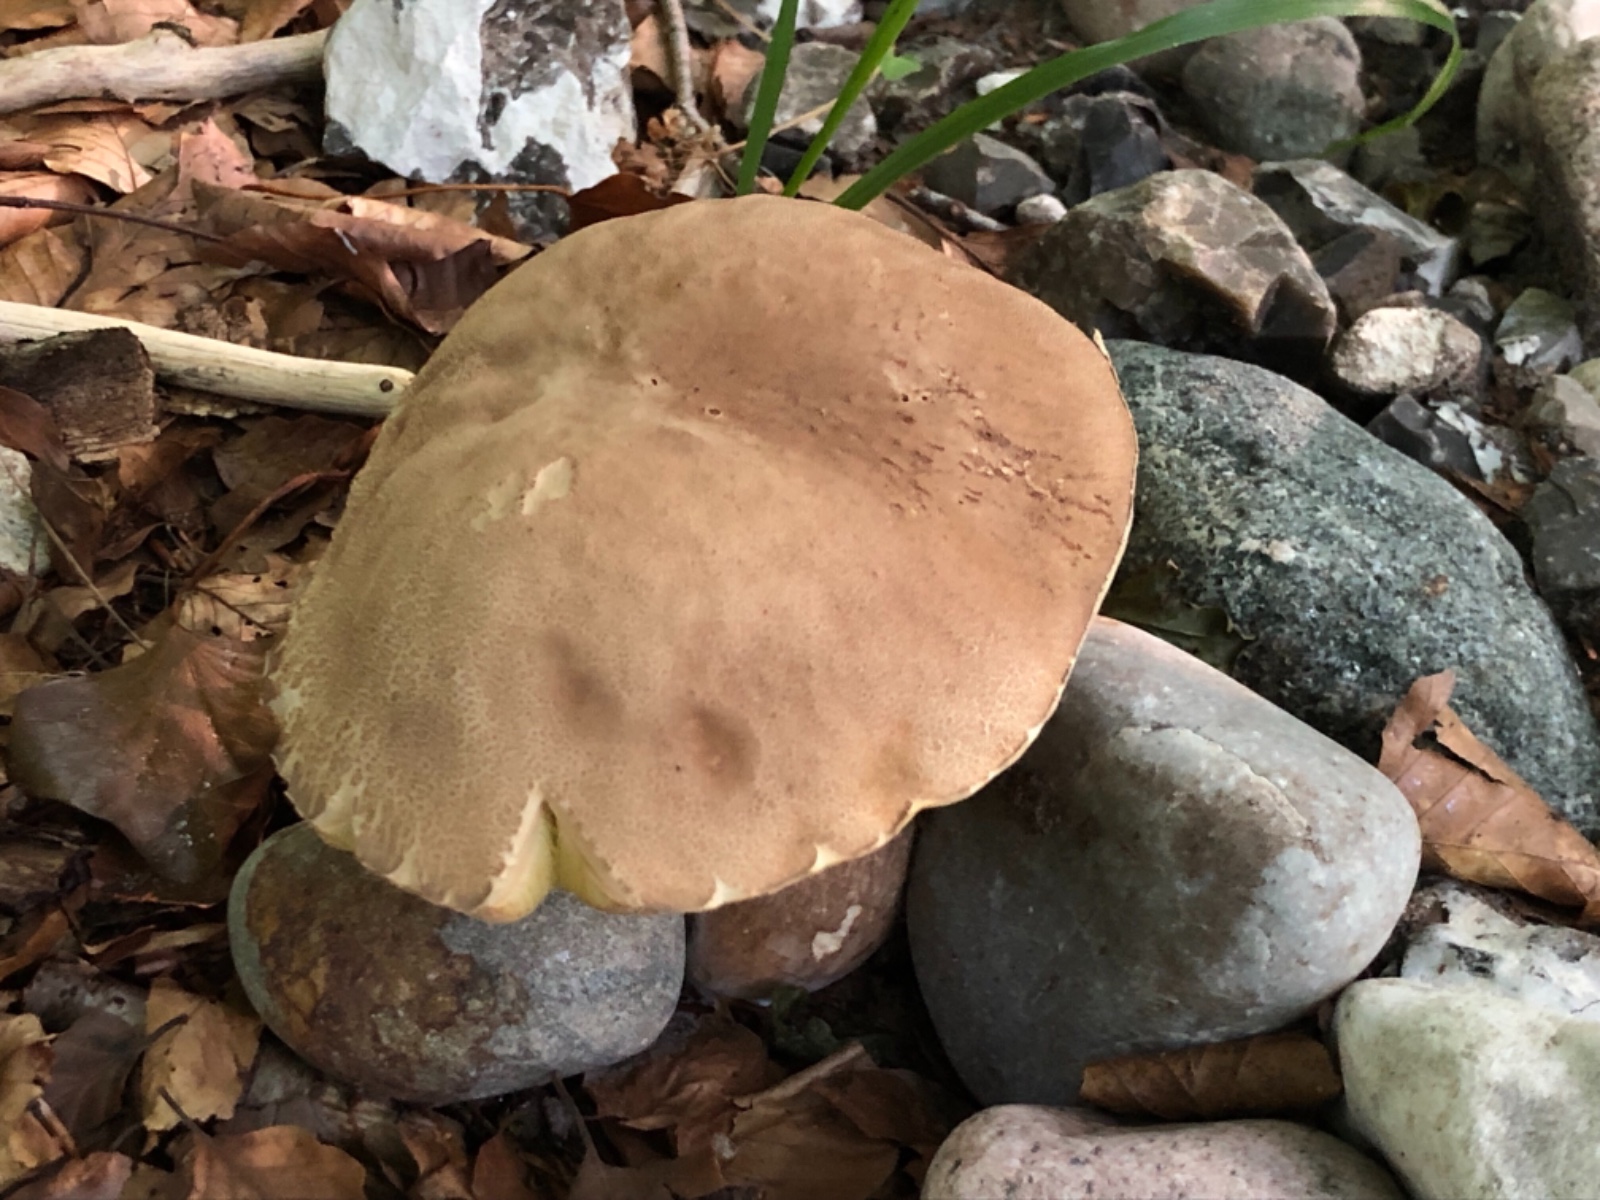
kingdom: Fungi
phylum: Basidiomycota
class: Agaricomycetes
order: Boletales
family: Boletaceae
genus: Boletus
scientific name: Boletus reticulatus
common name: sommer-rørhat
